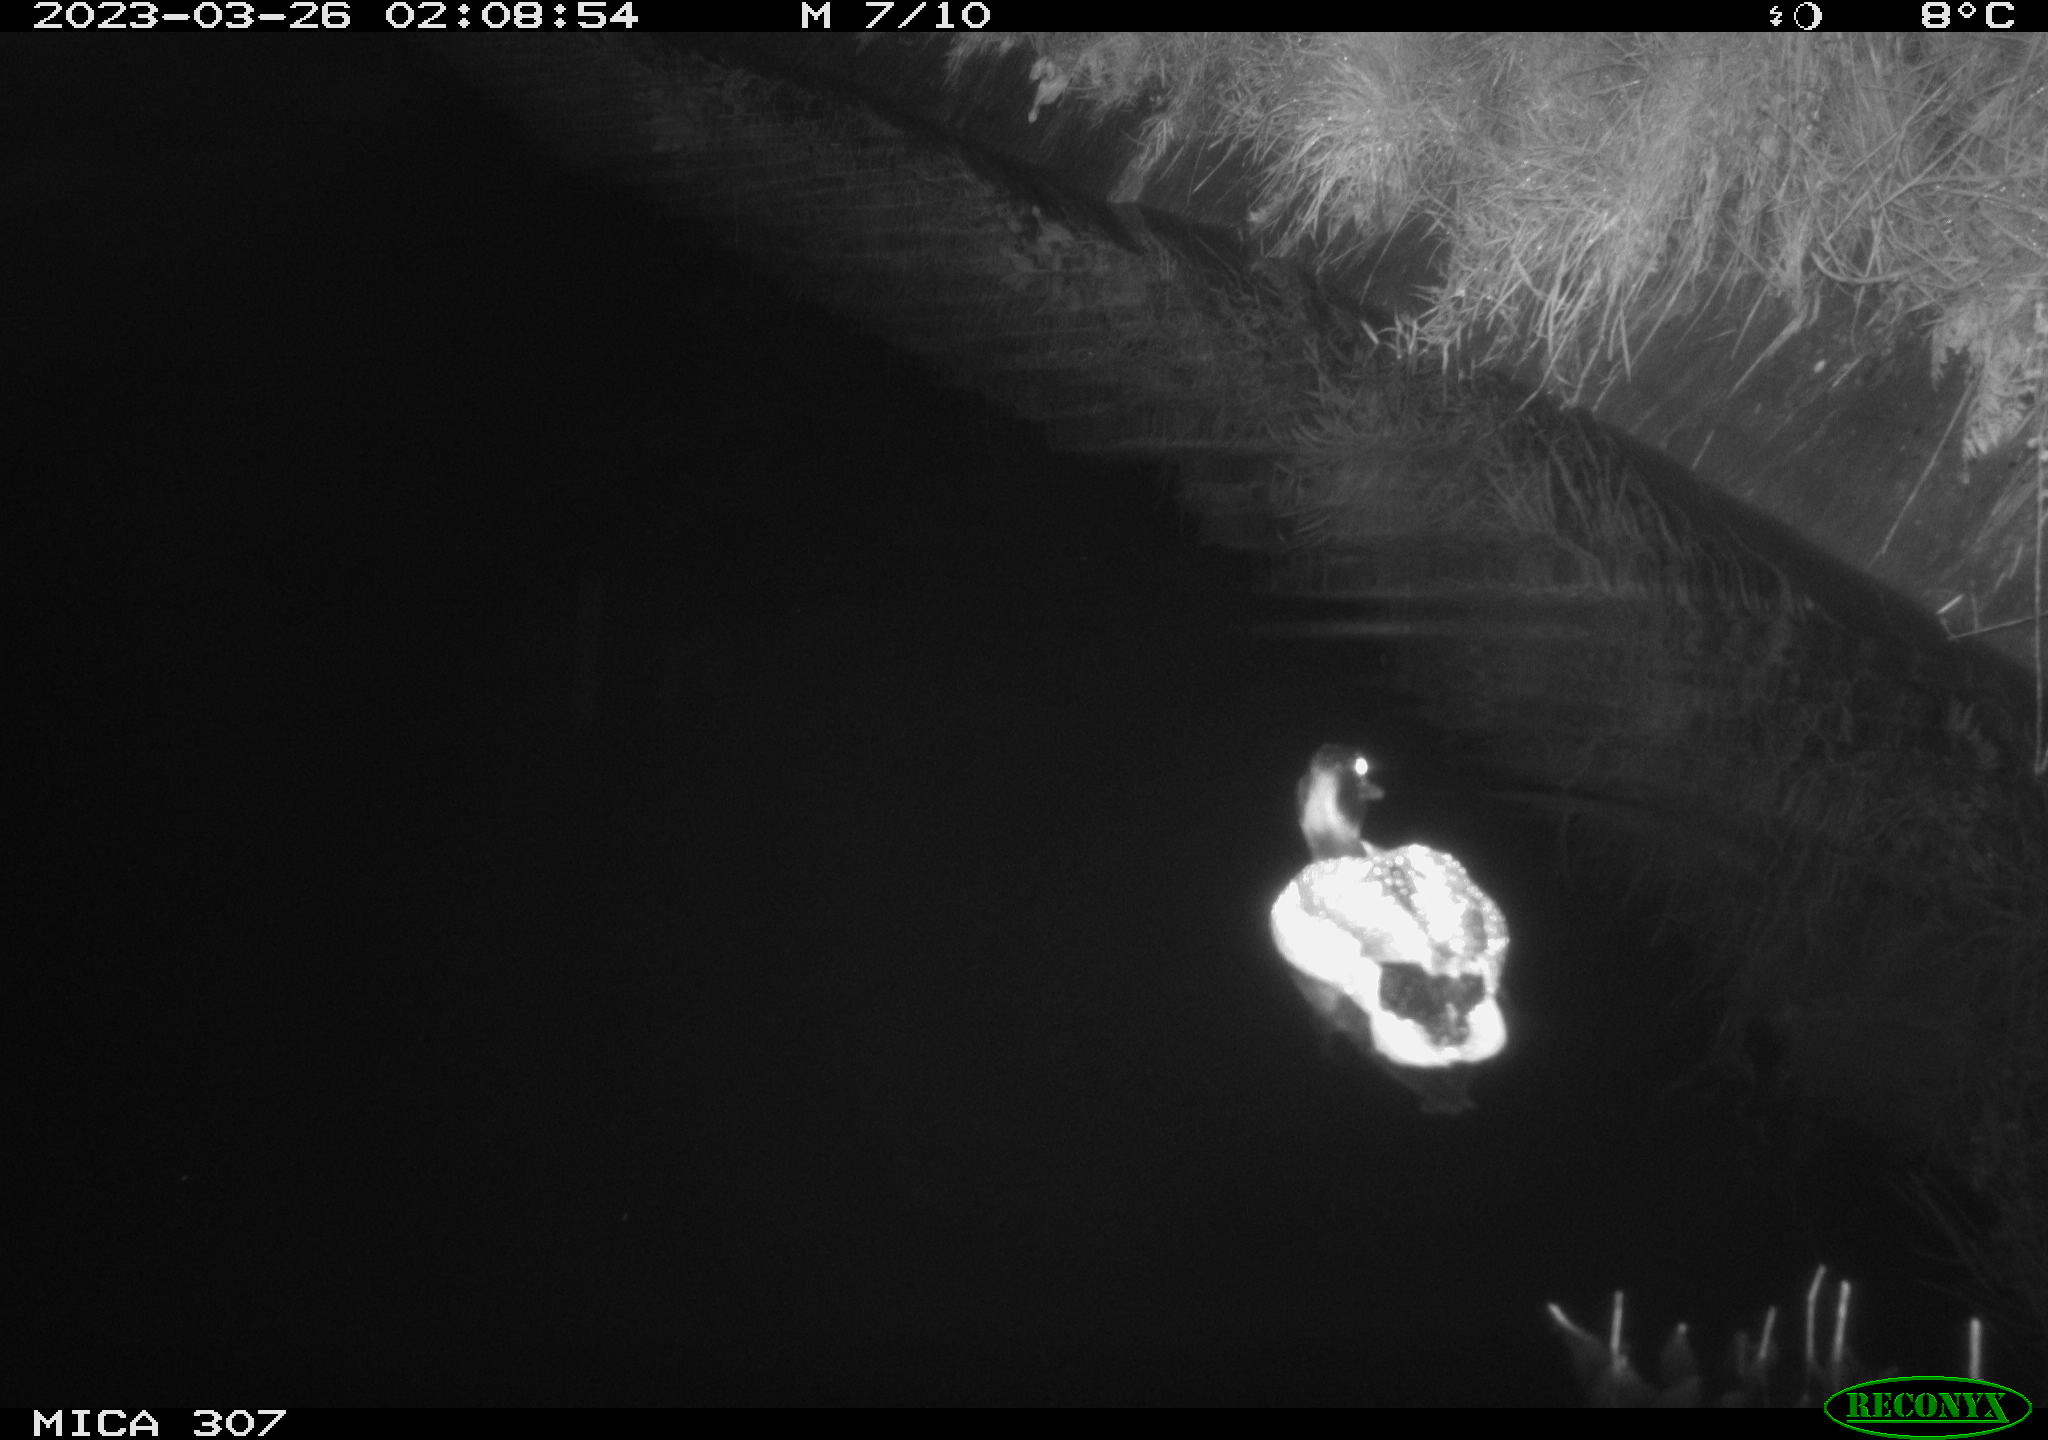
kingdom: Animalia
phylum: Chordata
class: Aves
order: Anseriformes
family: Anatidae
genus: Anas
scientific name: Anas
